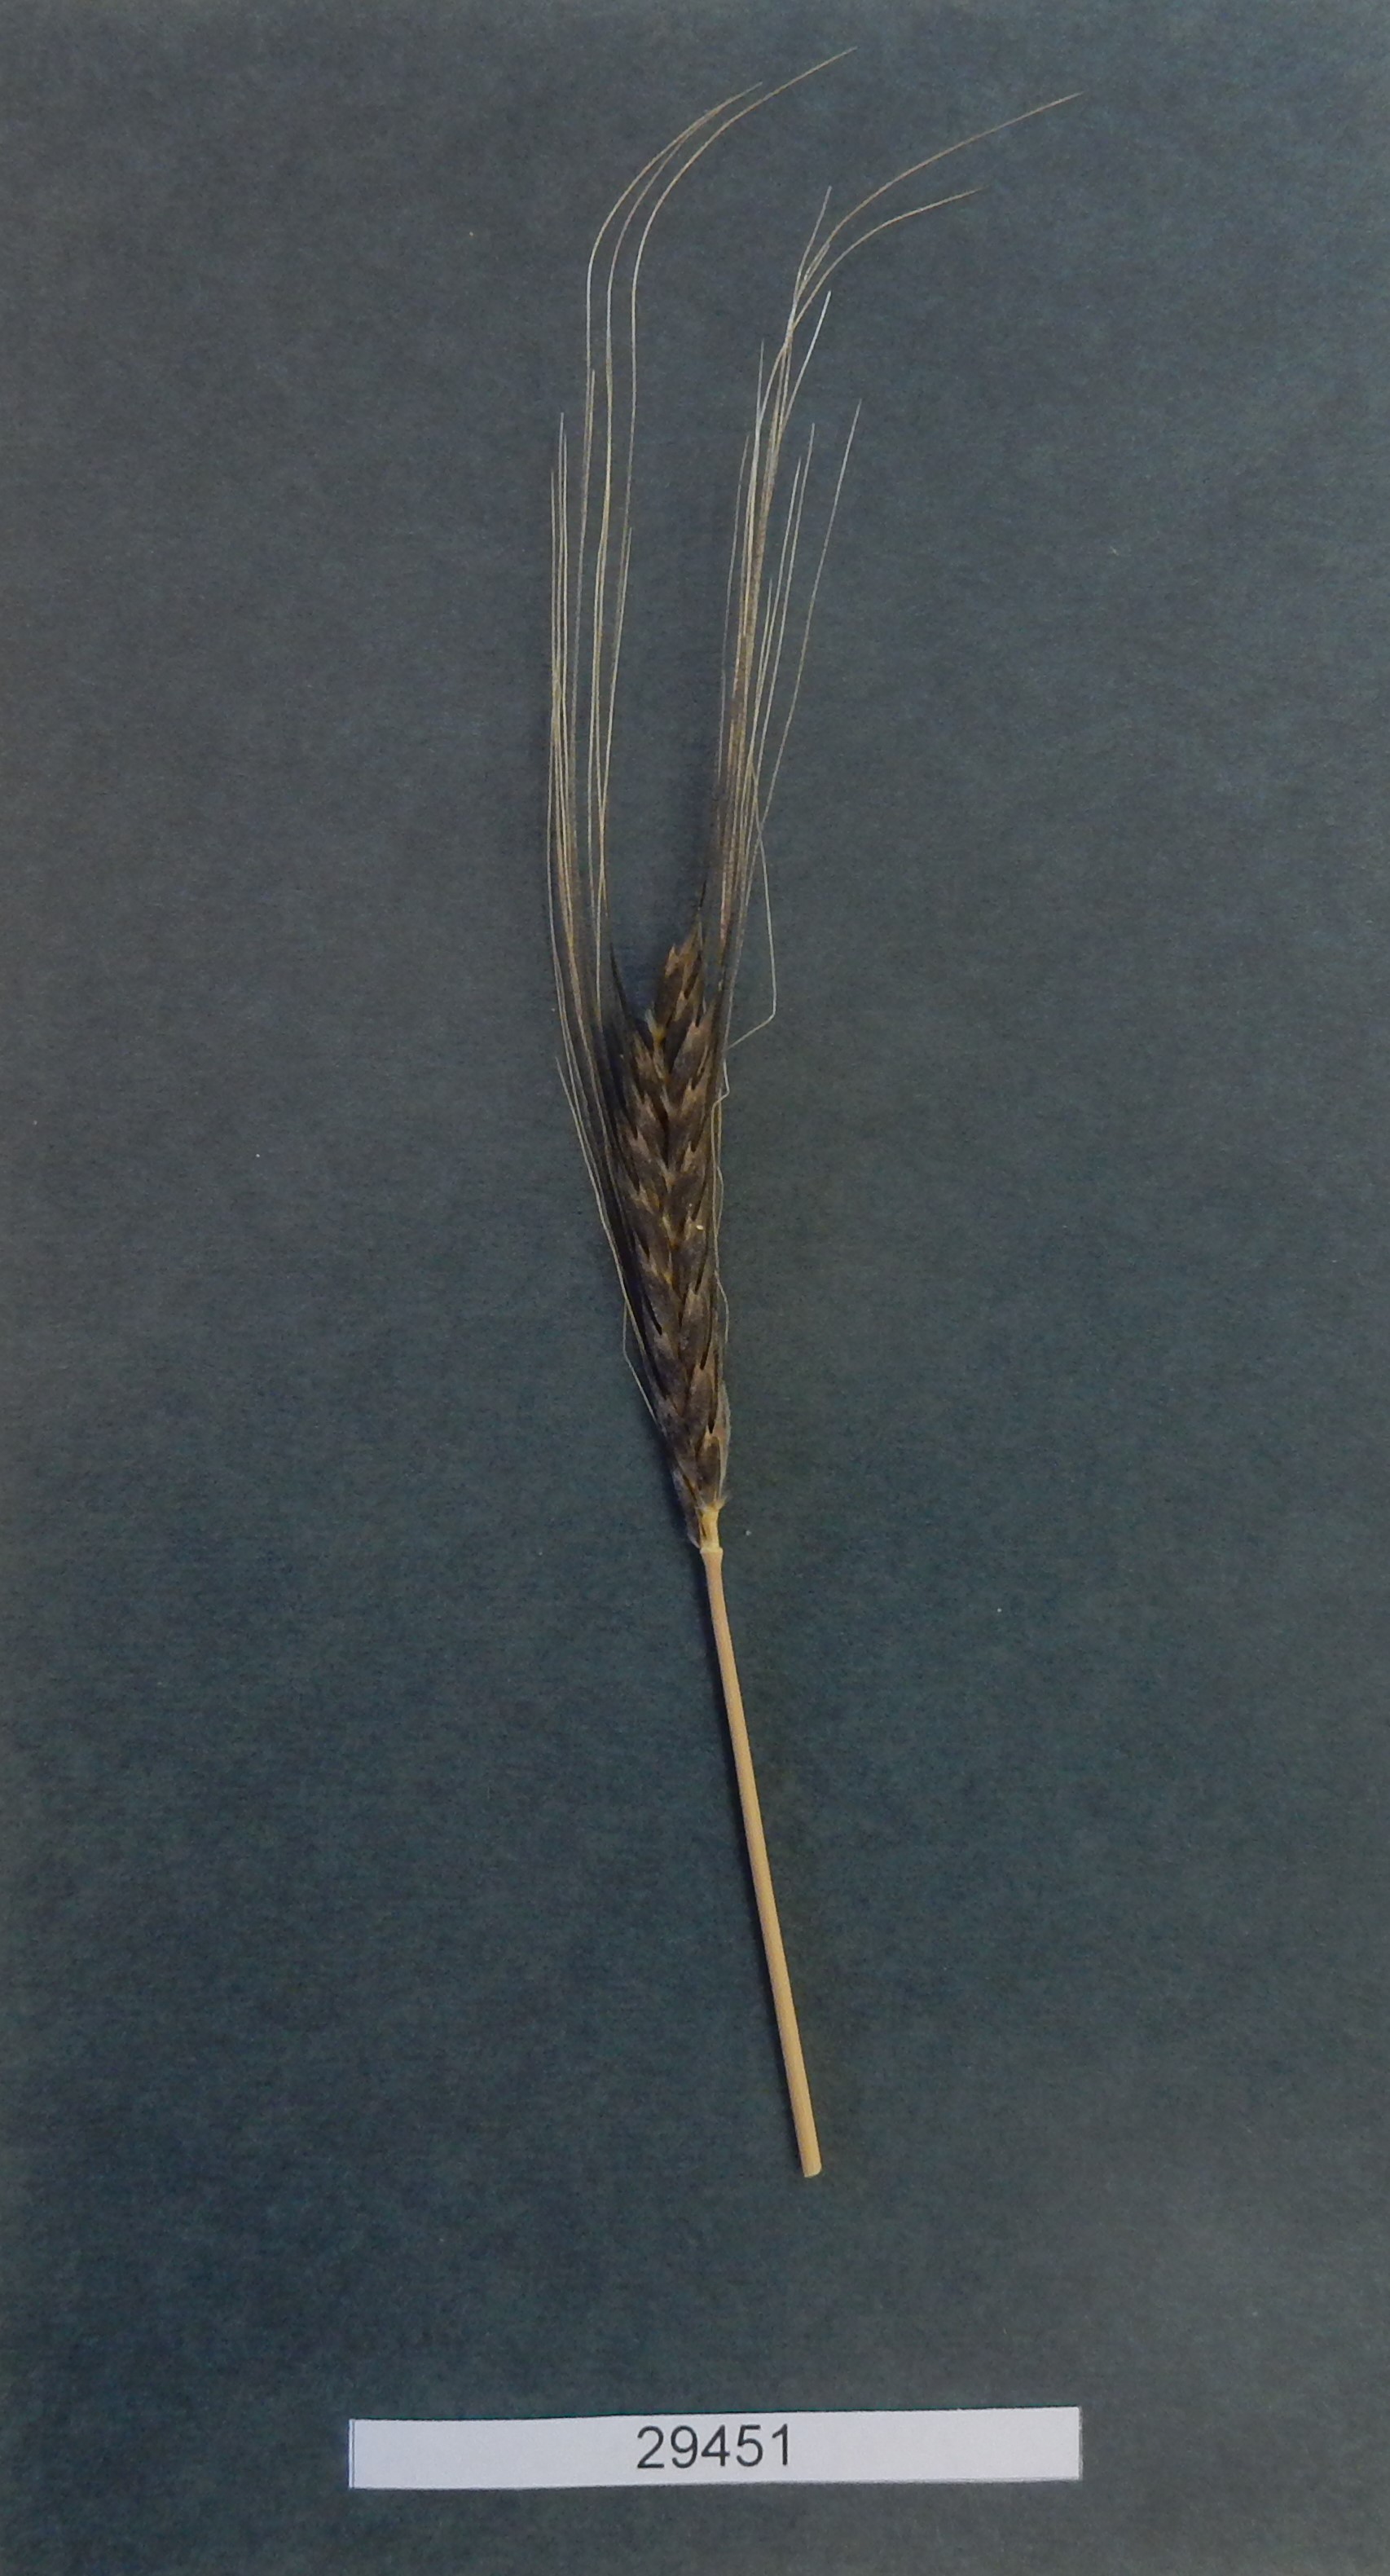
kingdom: Plantae
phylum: Tracheophyta
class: Liliopsida
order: Poales
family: Poaceae
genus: Triticum
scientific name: Triticum monococcum
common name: Wheat
